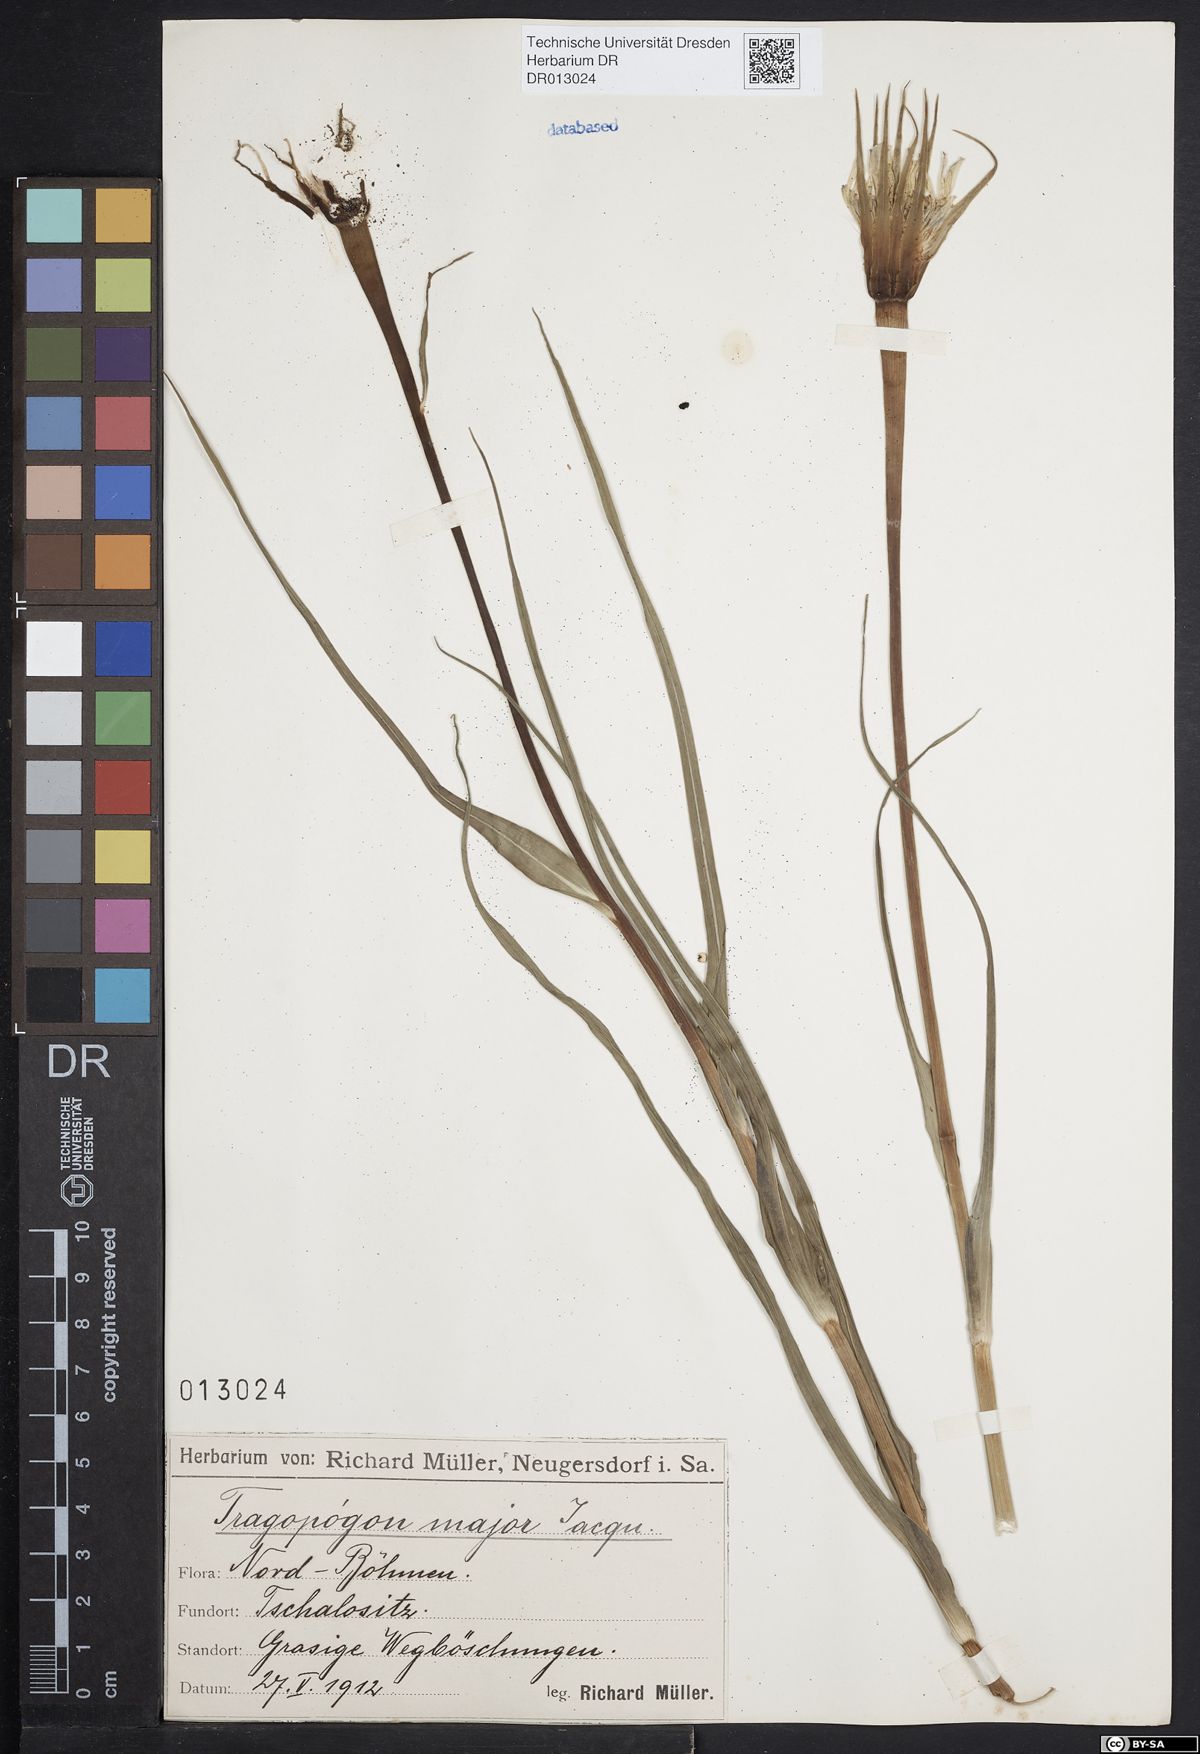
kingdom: Plantae
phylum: Tracheophyta
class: Magnoliopsida
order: Asterales
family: Asteraceae
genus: Tragopogon
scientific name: Tragopogon dubius
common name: Yellow salsify
